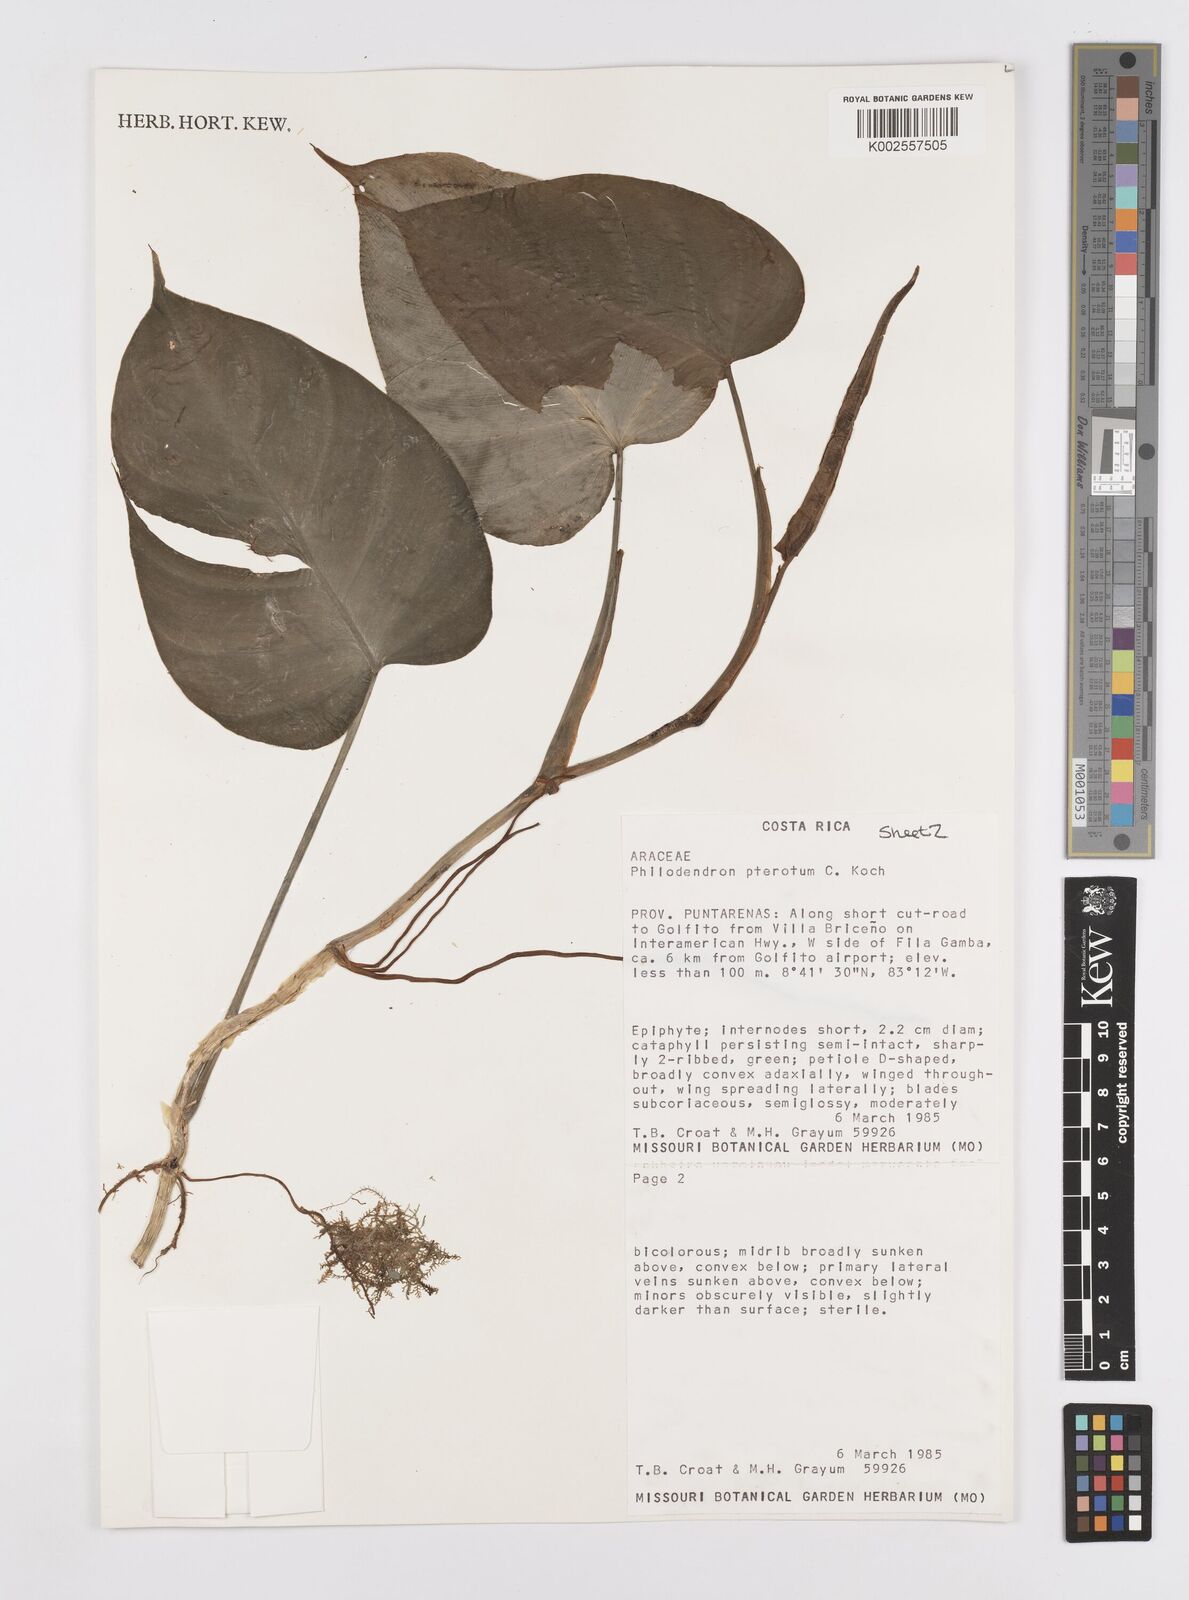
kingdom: Plantae
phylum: Tracheophyta
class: Liliopsida
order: Alismatales
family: Araceae
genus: Philodendron
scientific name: Philodendron pterotum
